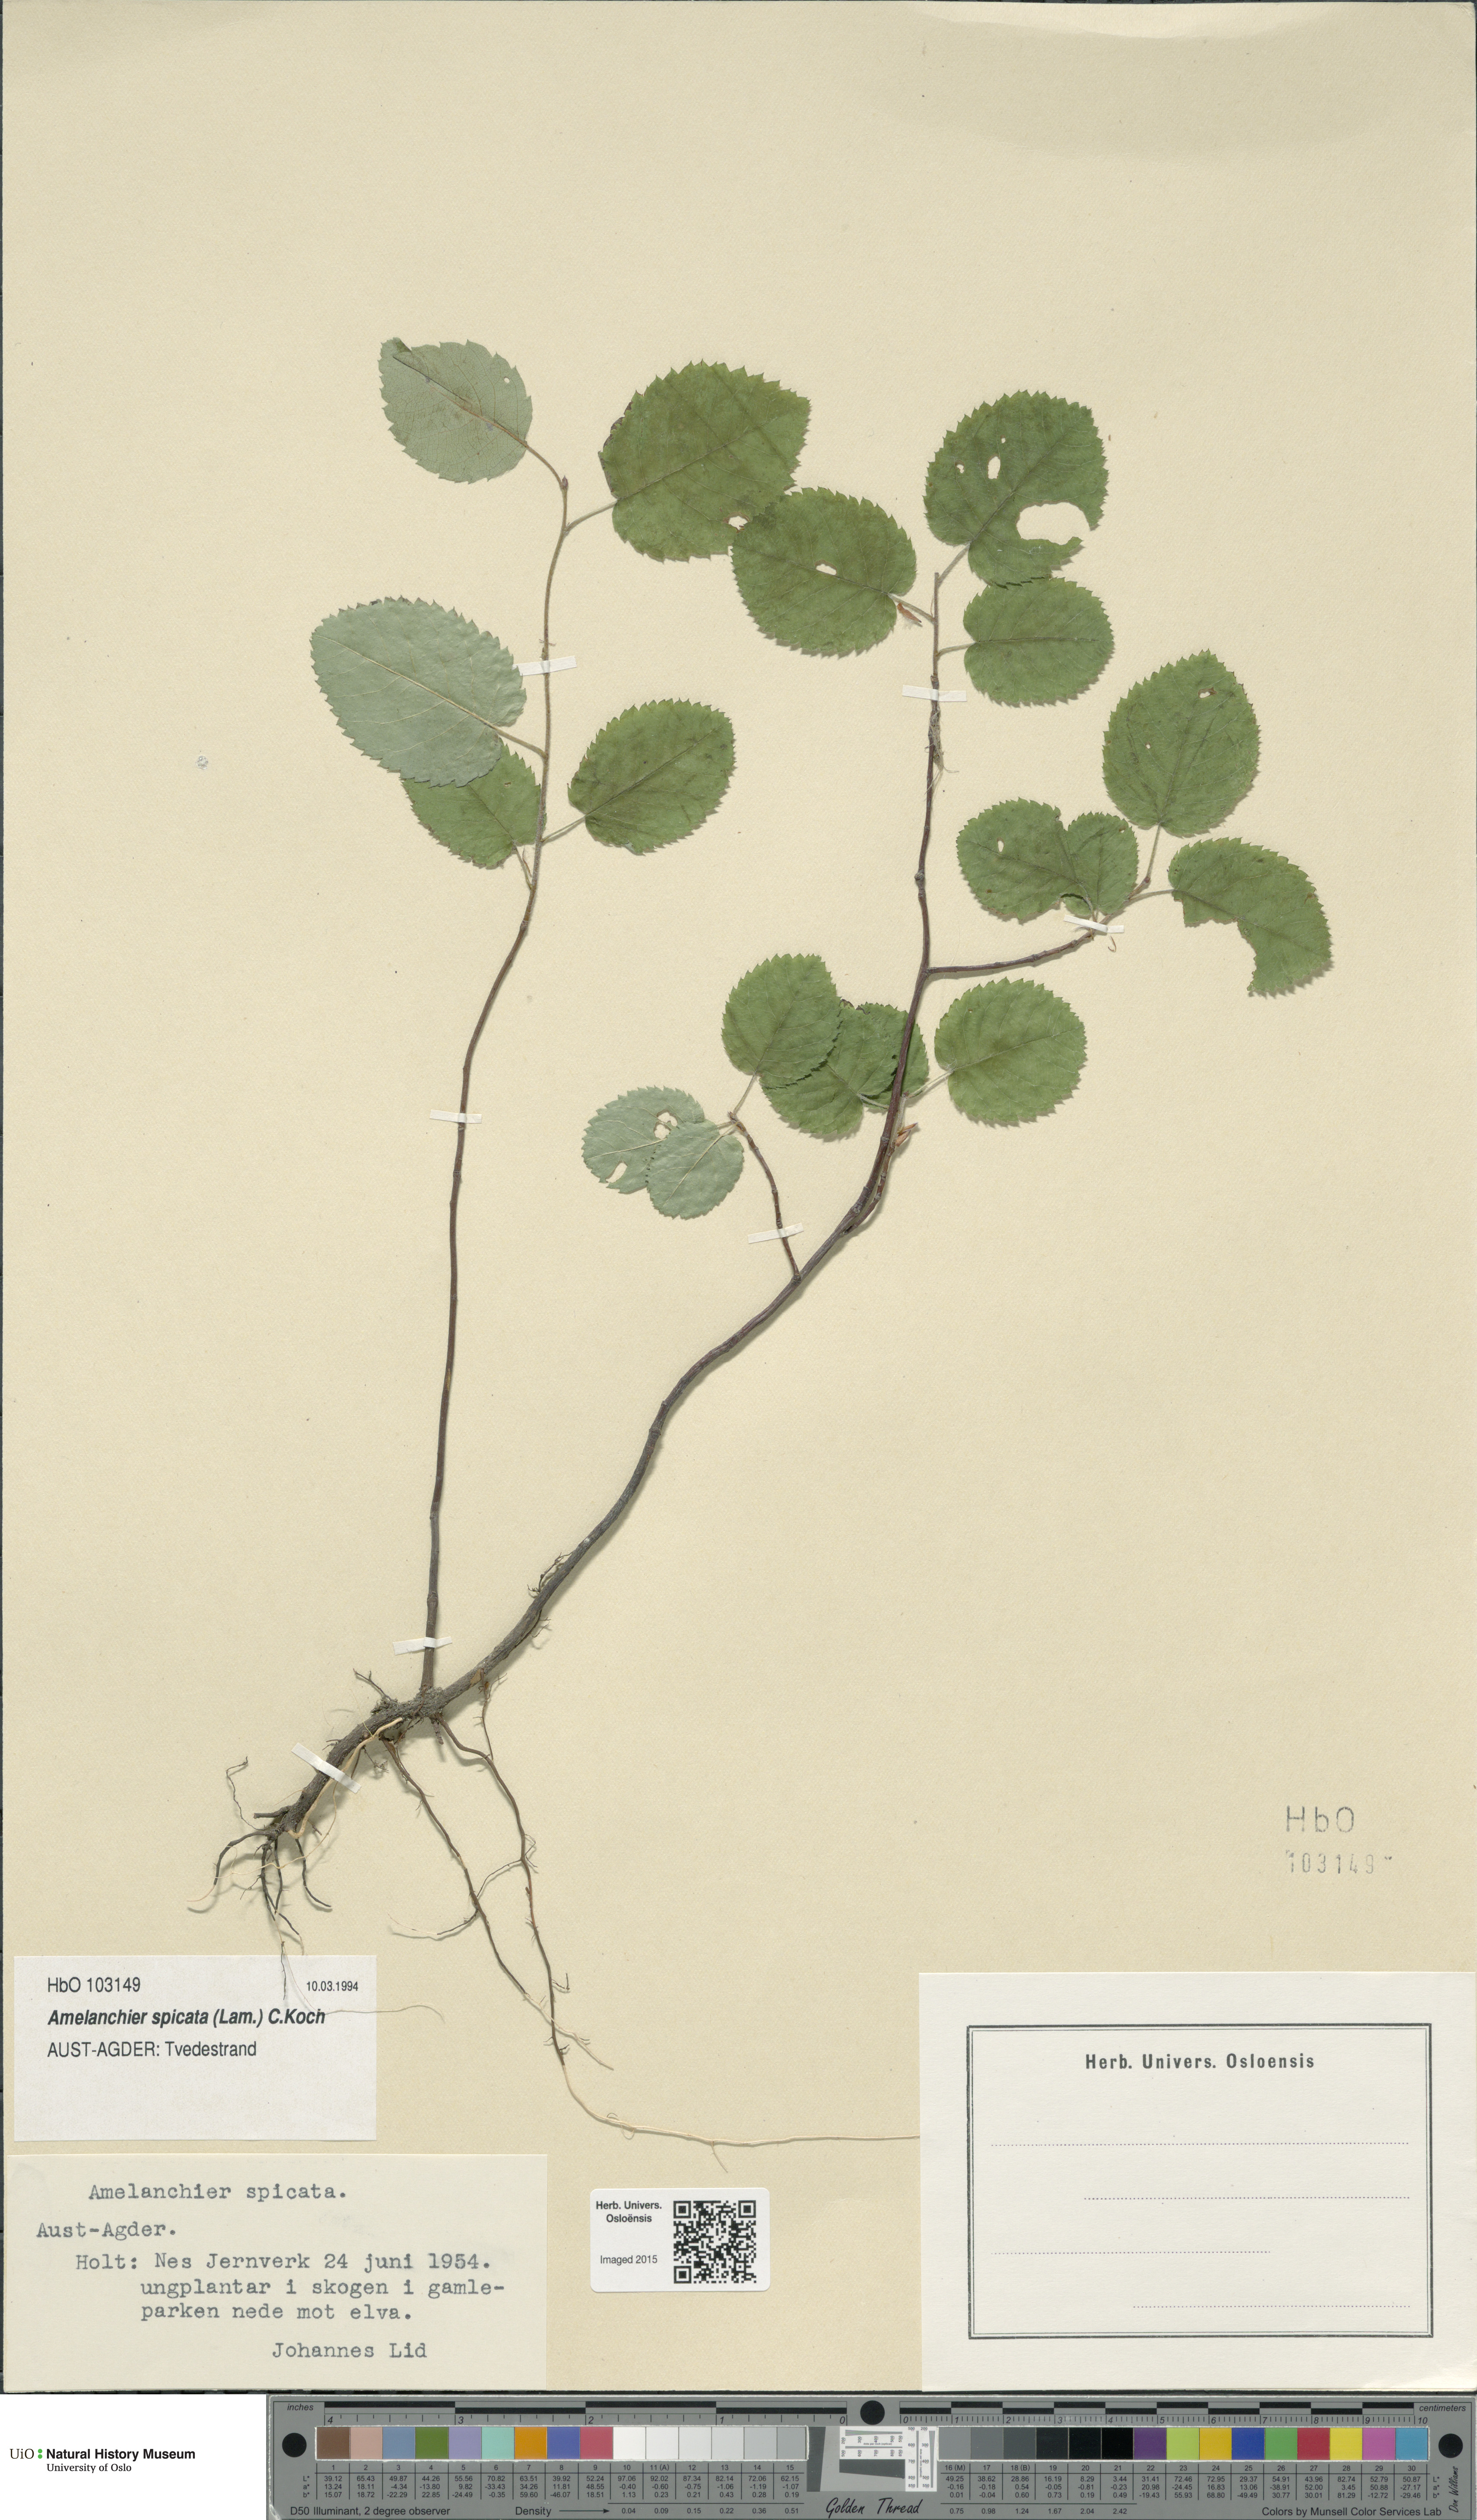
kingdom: Plantae
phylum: Tracheophyta
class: Magnoliopsida
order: Rosales
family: Rosaceae
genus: Amelanchier
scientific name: Amelanchier humilis
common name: Low juneberry
